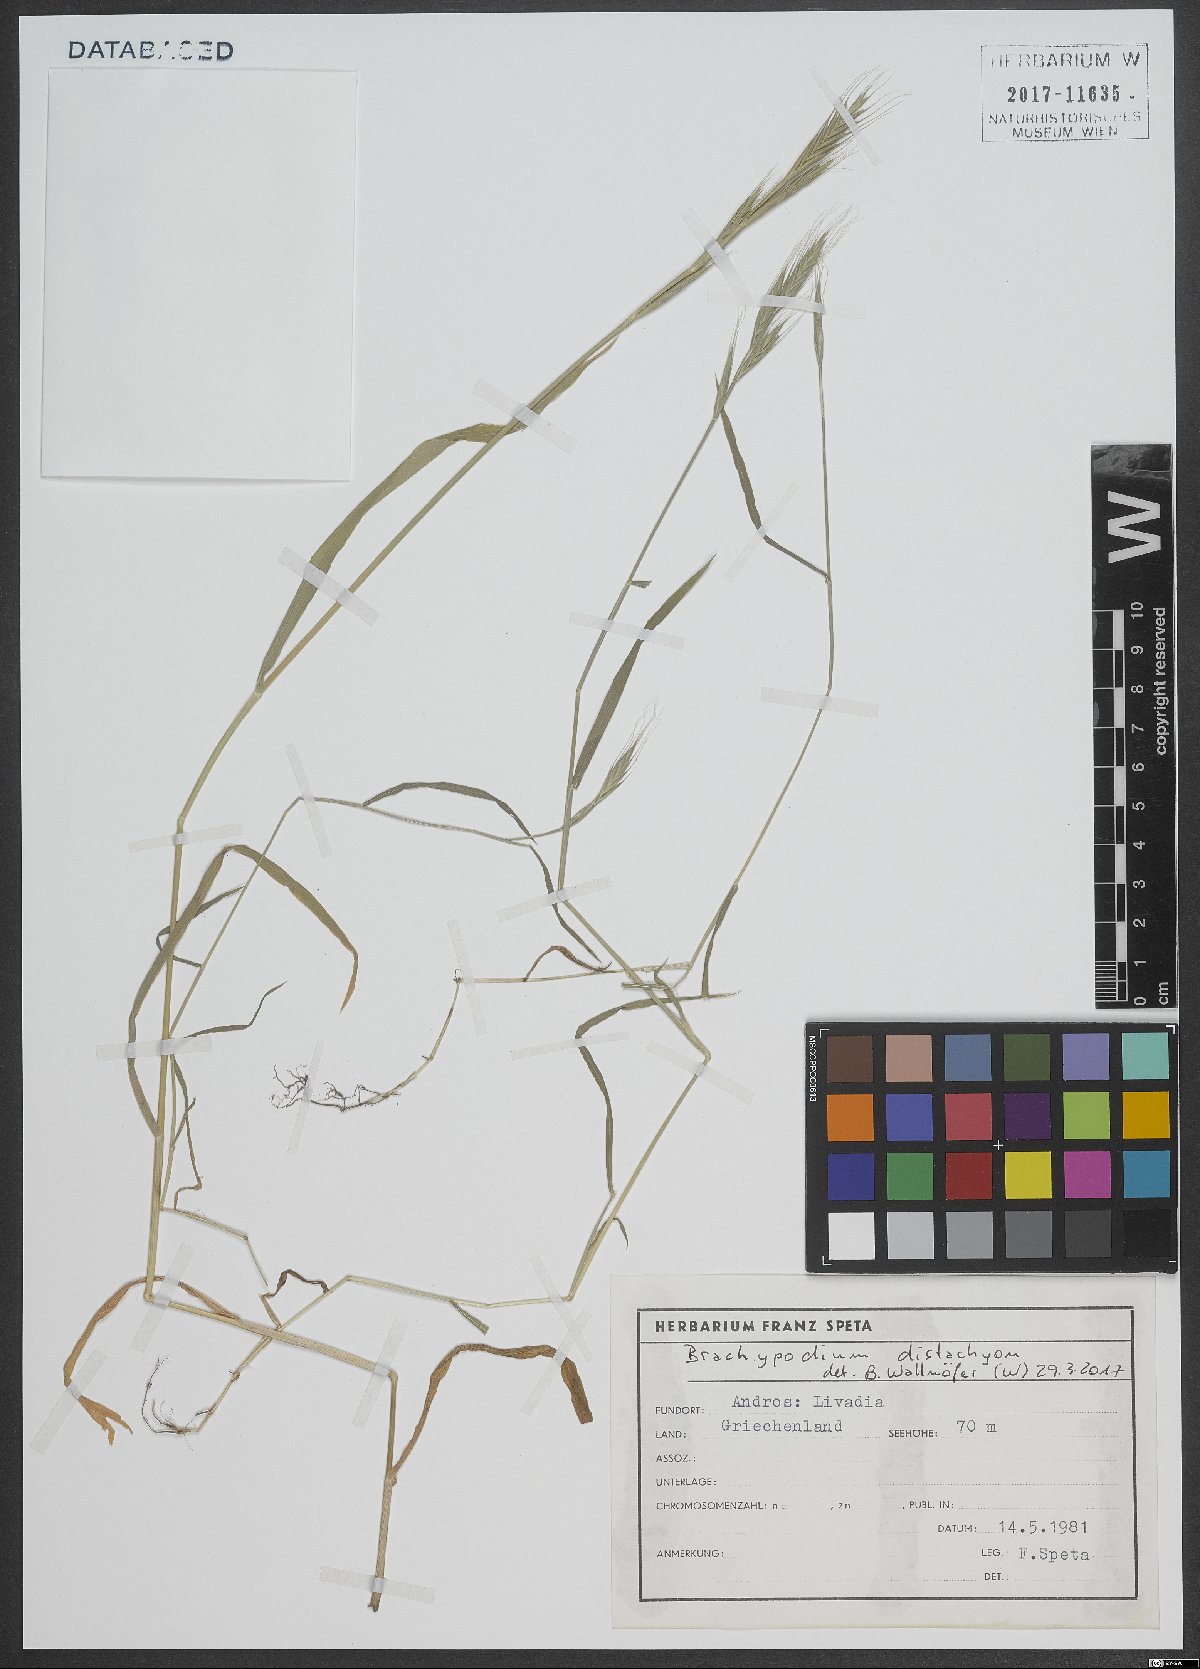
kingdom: Plantae
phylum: Tracheophyta
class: Liliopsida
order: Poales
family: Poaceae
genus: Brachypodium
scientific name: Brachypodium distachyon
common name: Stiff brome
